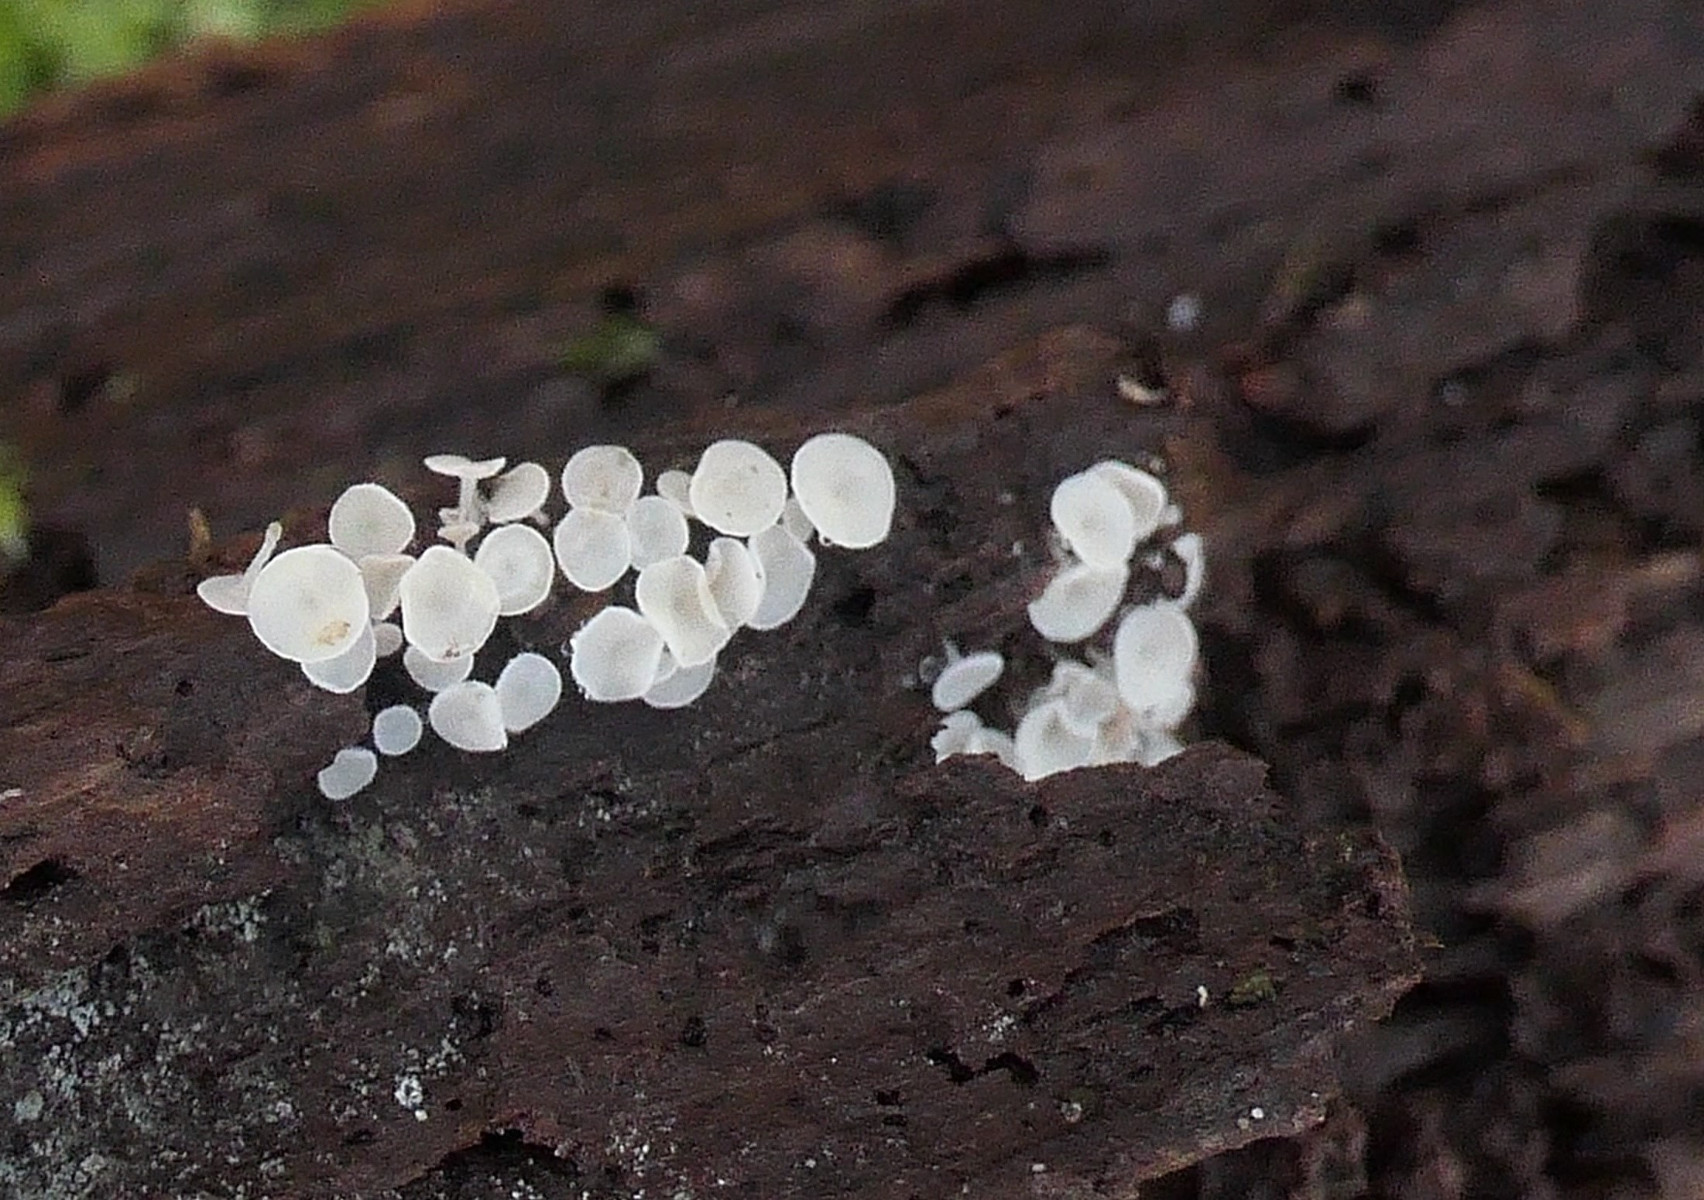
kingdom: Fungi
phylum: Ascomycota
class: Leotiomycetes
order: Helotiales
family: Lachnaceae
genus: Lachnum
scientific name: Lachnum impudicum
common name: vinter-frynseskive
